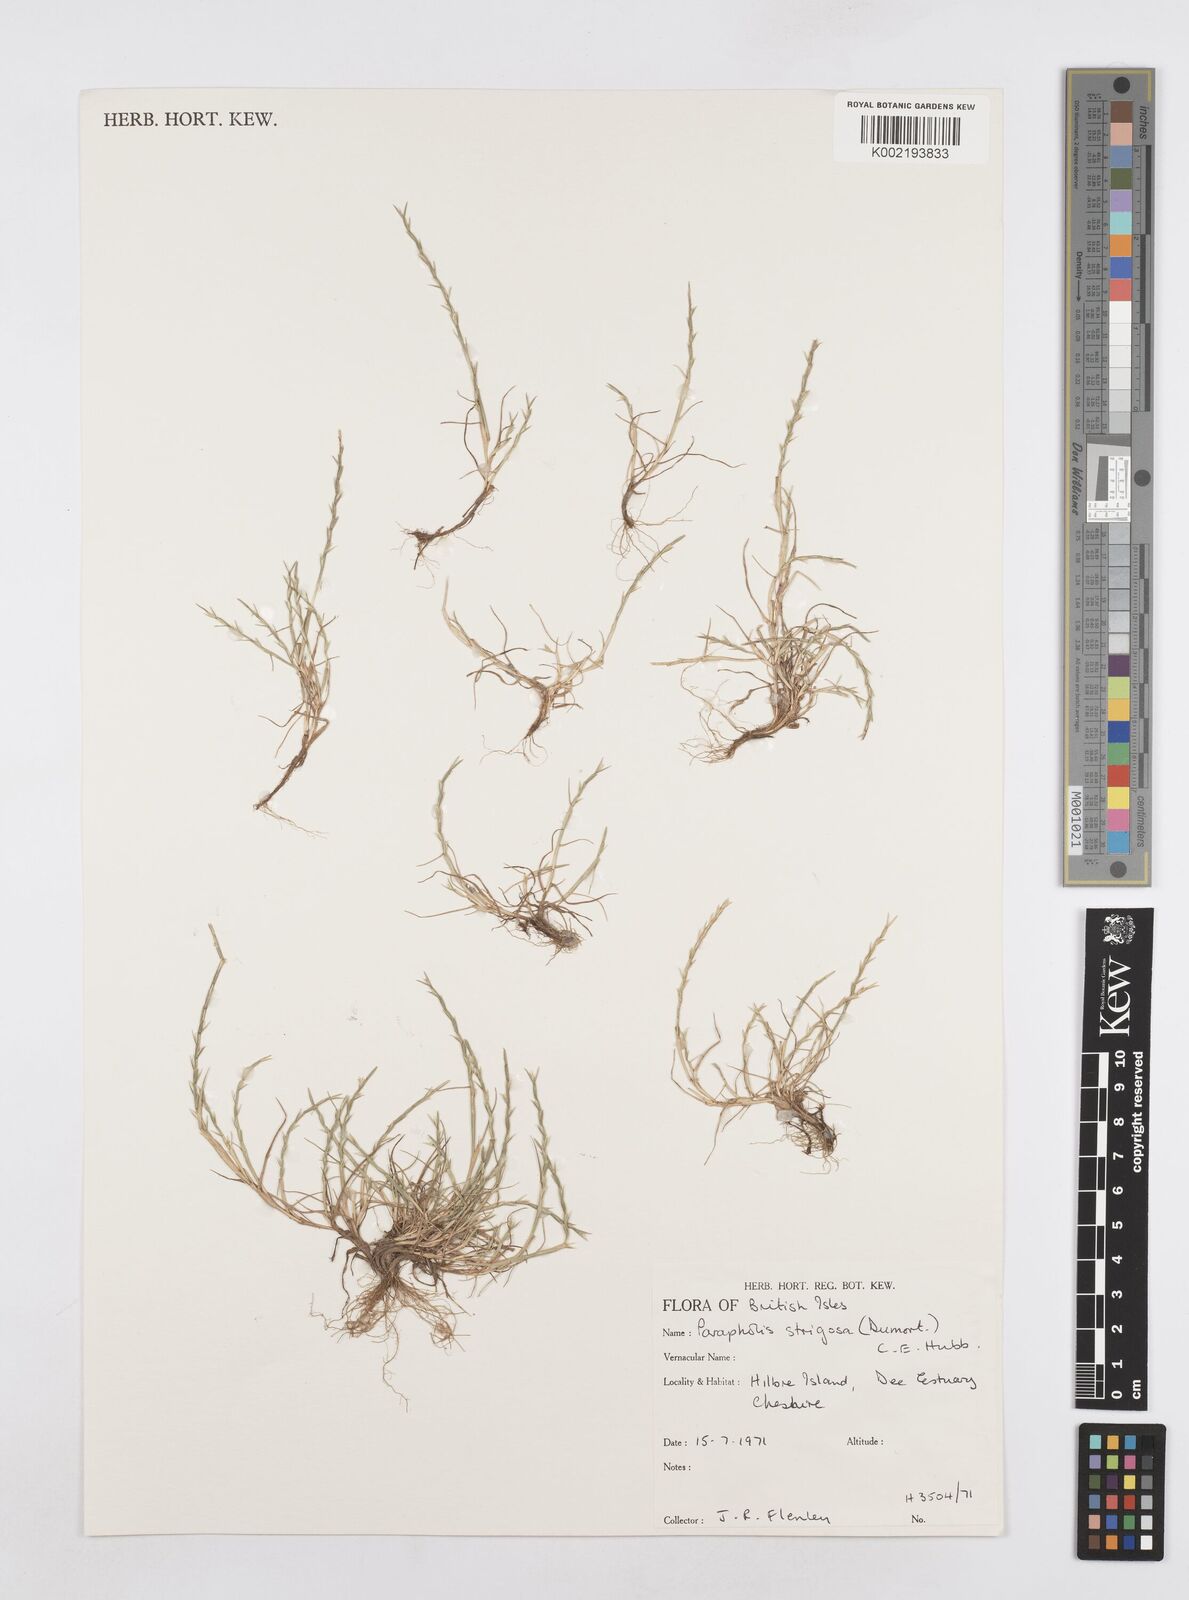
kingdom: Plantae
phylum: Tracheophyta
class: Liliopsida
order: Poales
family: Poaceae
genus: Parapholis
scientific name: Parapholis strigosa
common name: Hard-grass
